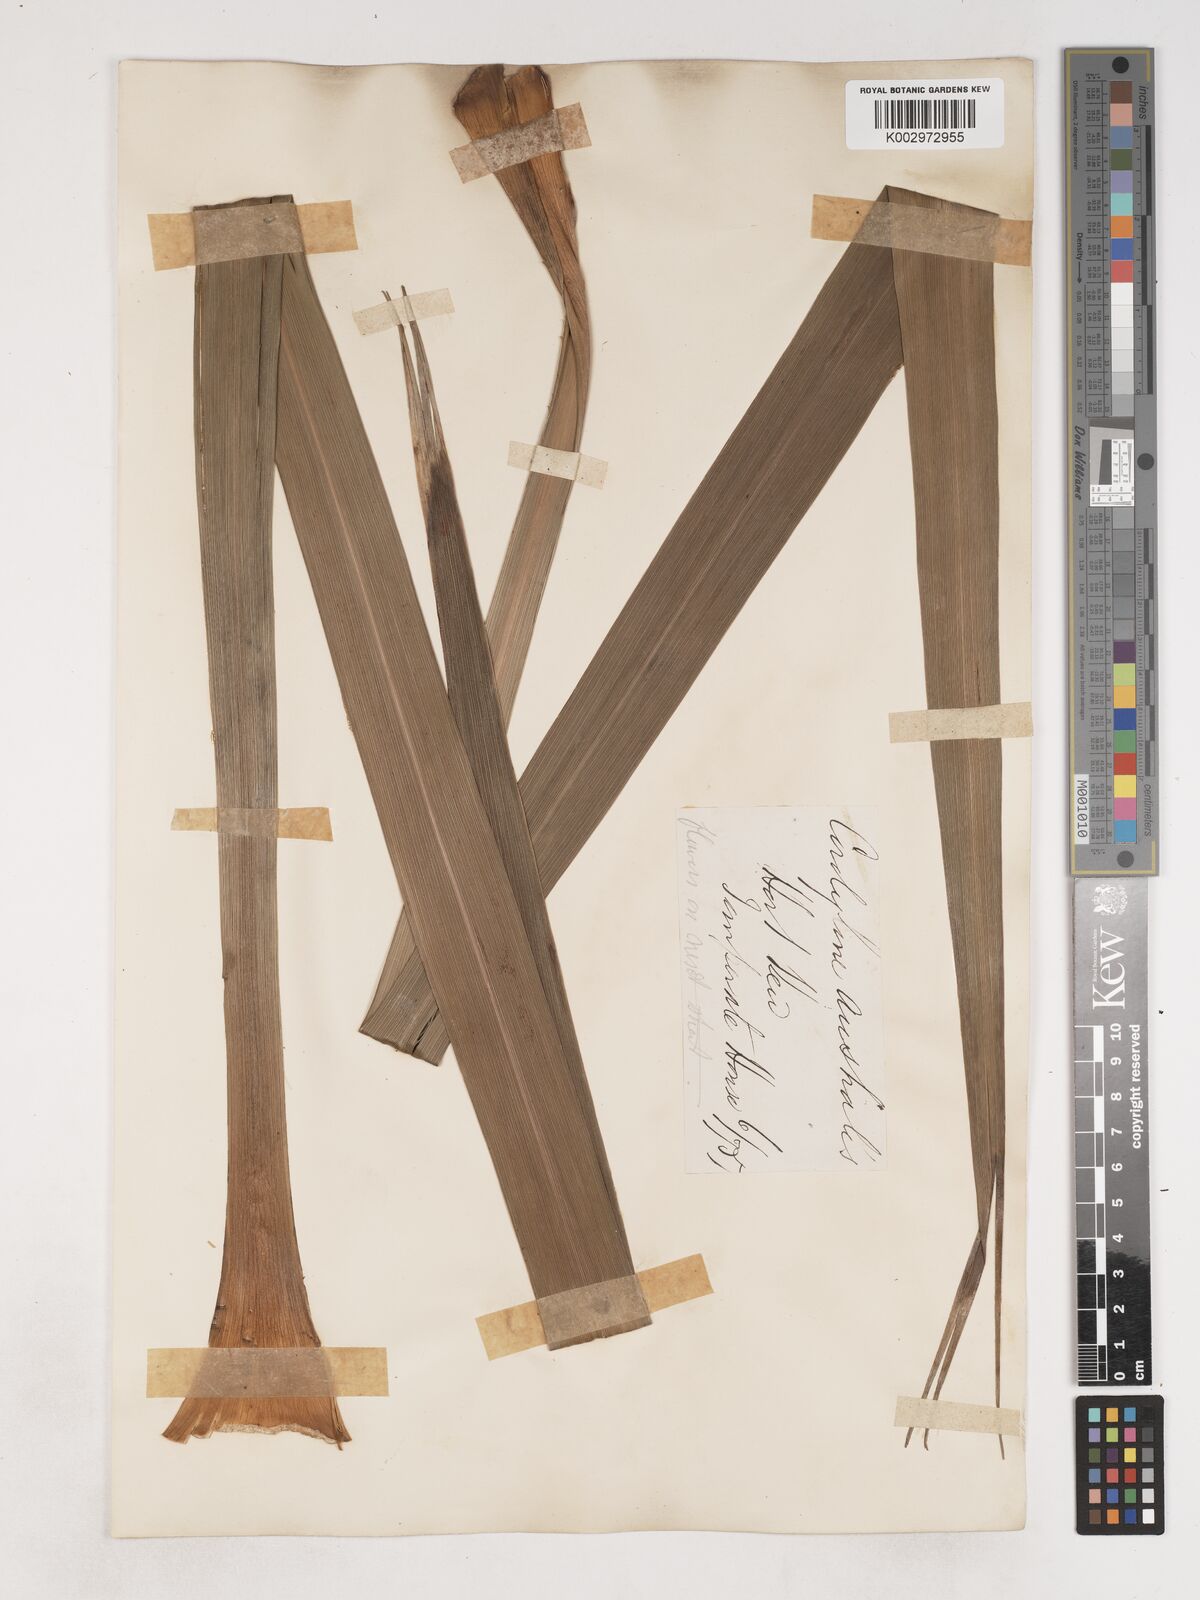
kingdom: Plantae
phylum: Tracheophyta
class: Liliopsida
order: Asparagales
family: Asparagaceae
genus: Cordyline
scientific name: Cordyline australis
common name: Cabbage-palm
